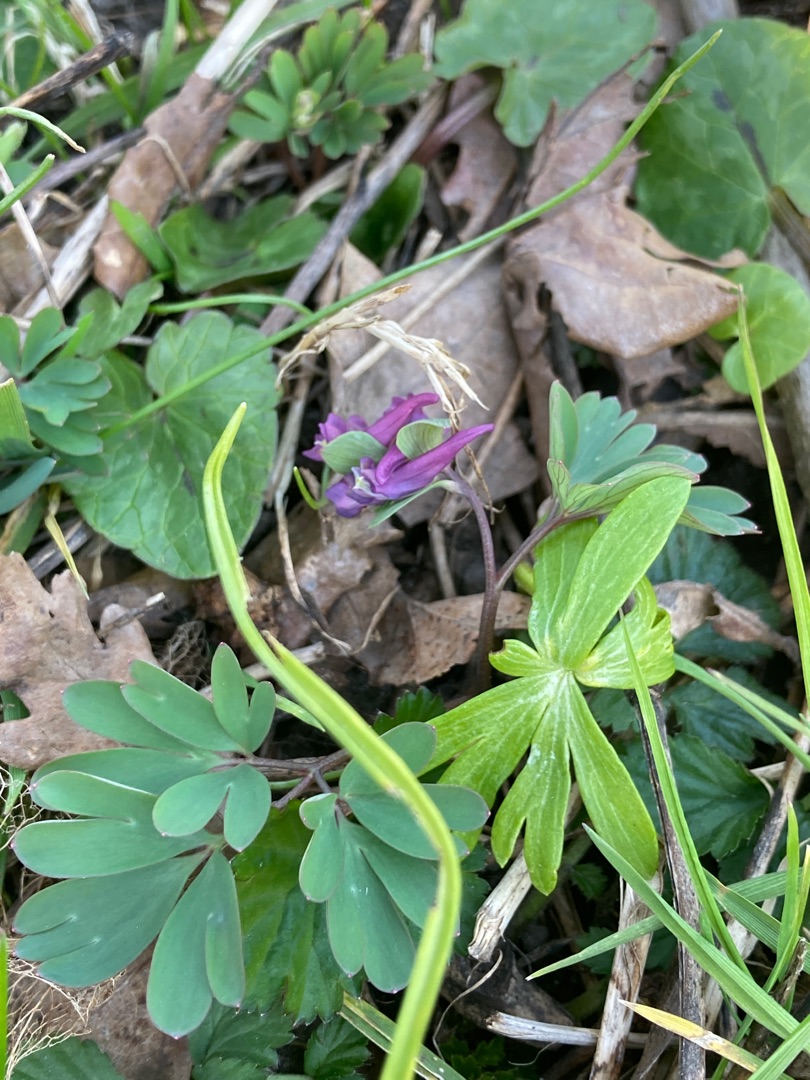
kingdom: Plantae
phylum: Tracheophyta
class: Magnoliopsida
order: Ranunculales
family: Papaveraceae
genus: Corydalis
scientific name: Corydalis intermedia
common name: Liden lærkespore
